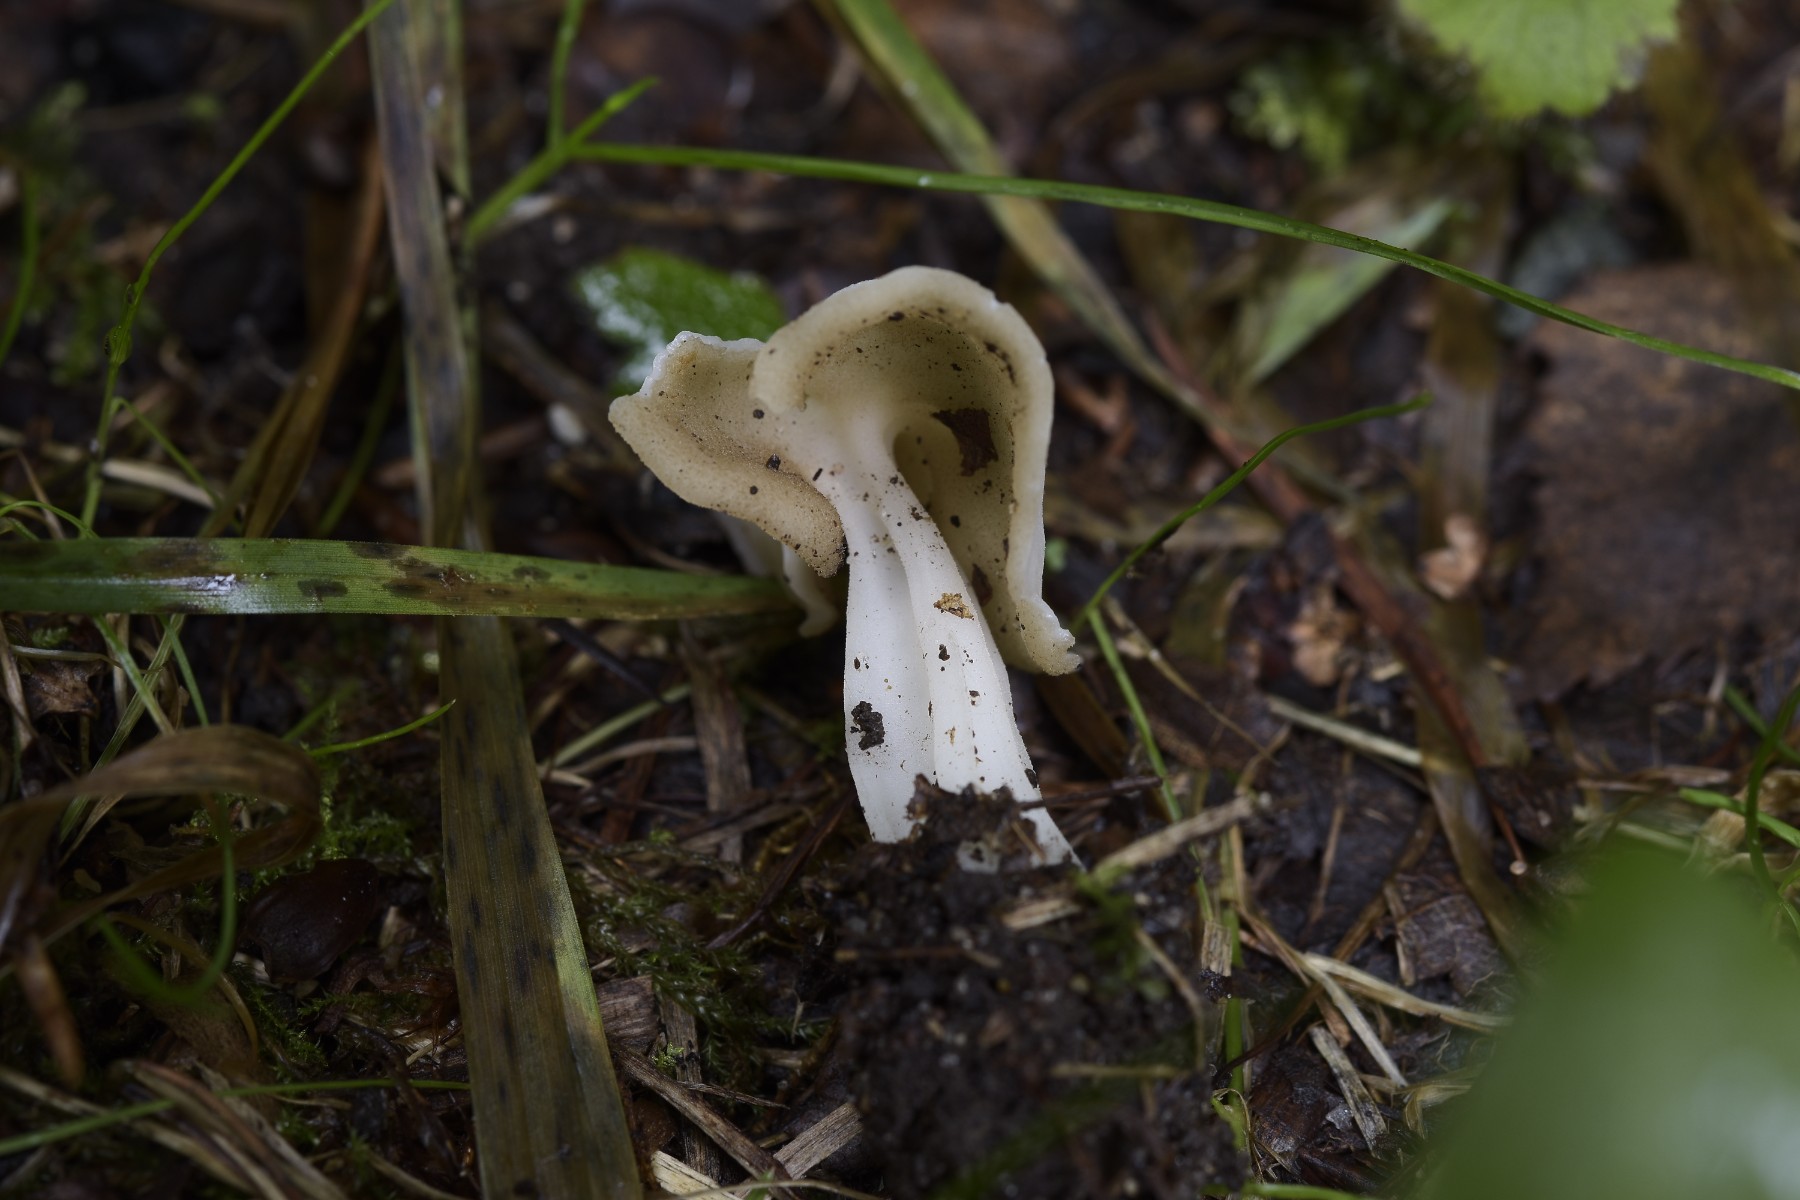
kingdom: Fungi
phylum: Ascomycota
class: Pezizomycetes
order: Pezizales
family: Helvellaceae
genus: Helvella
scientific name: Helvella
